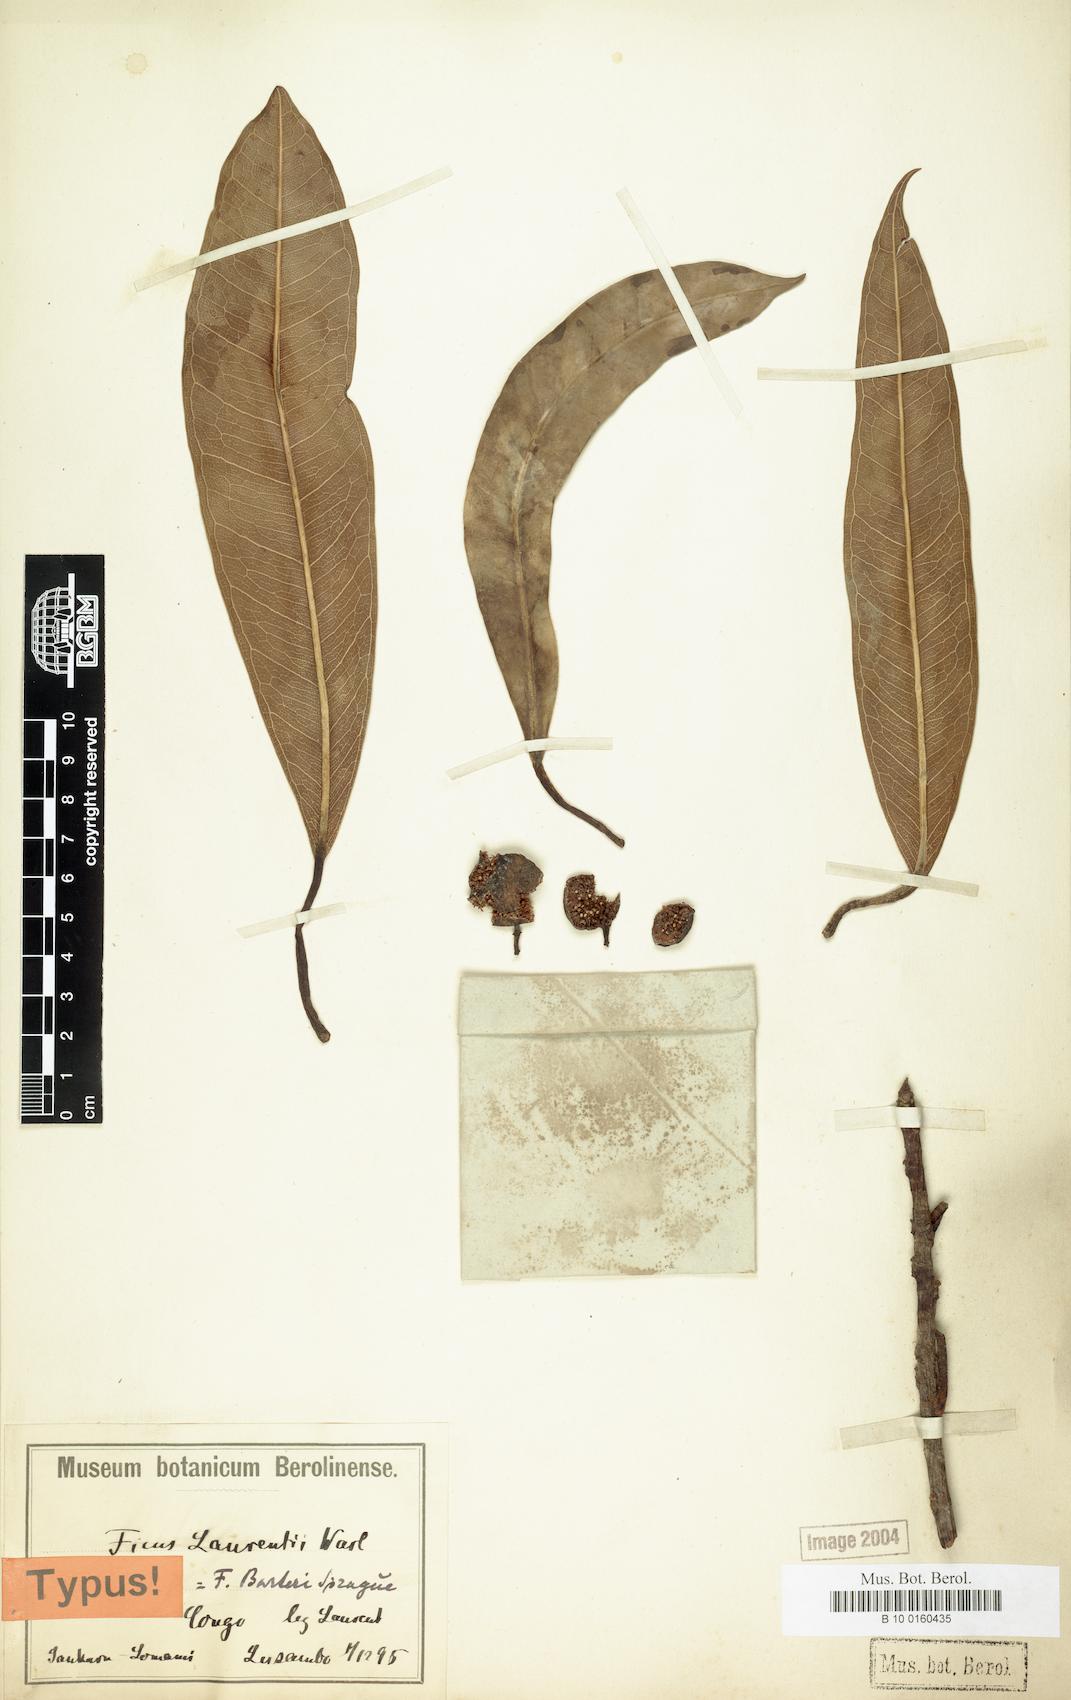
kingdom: Plantae
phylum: Tracheophyta
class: Magnoliopsida
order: Rosales
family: Moraceae
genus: Ficus
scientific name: Ficus barteri
